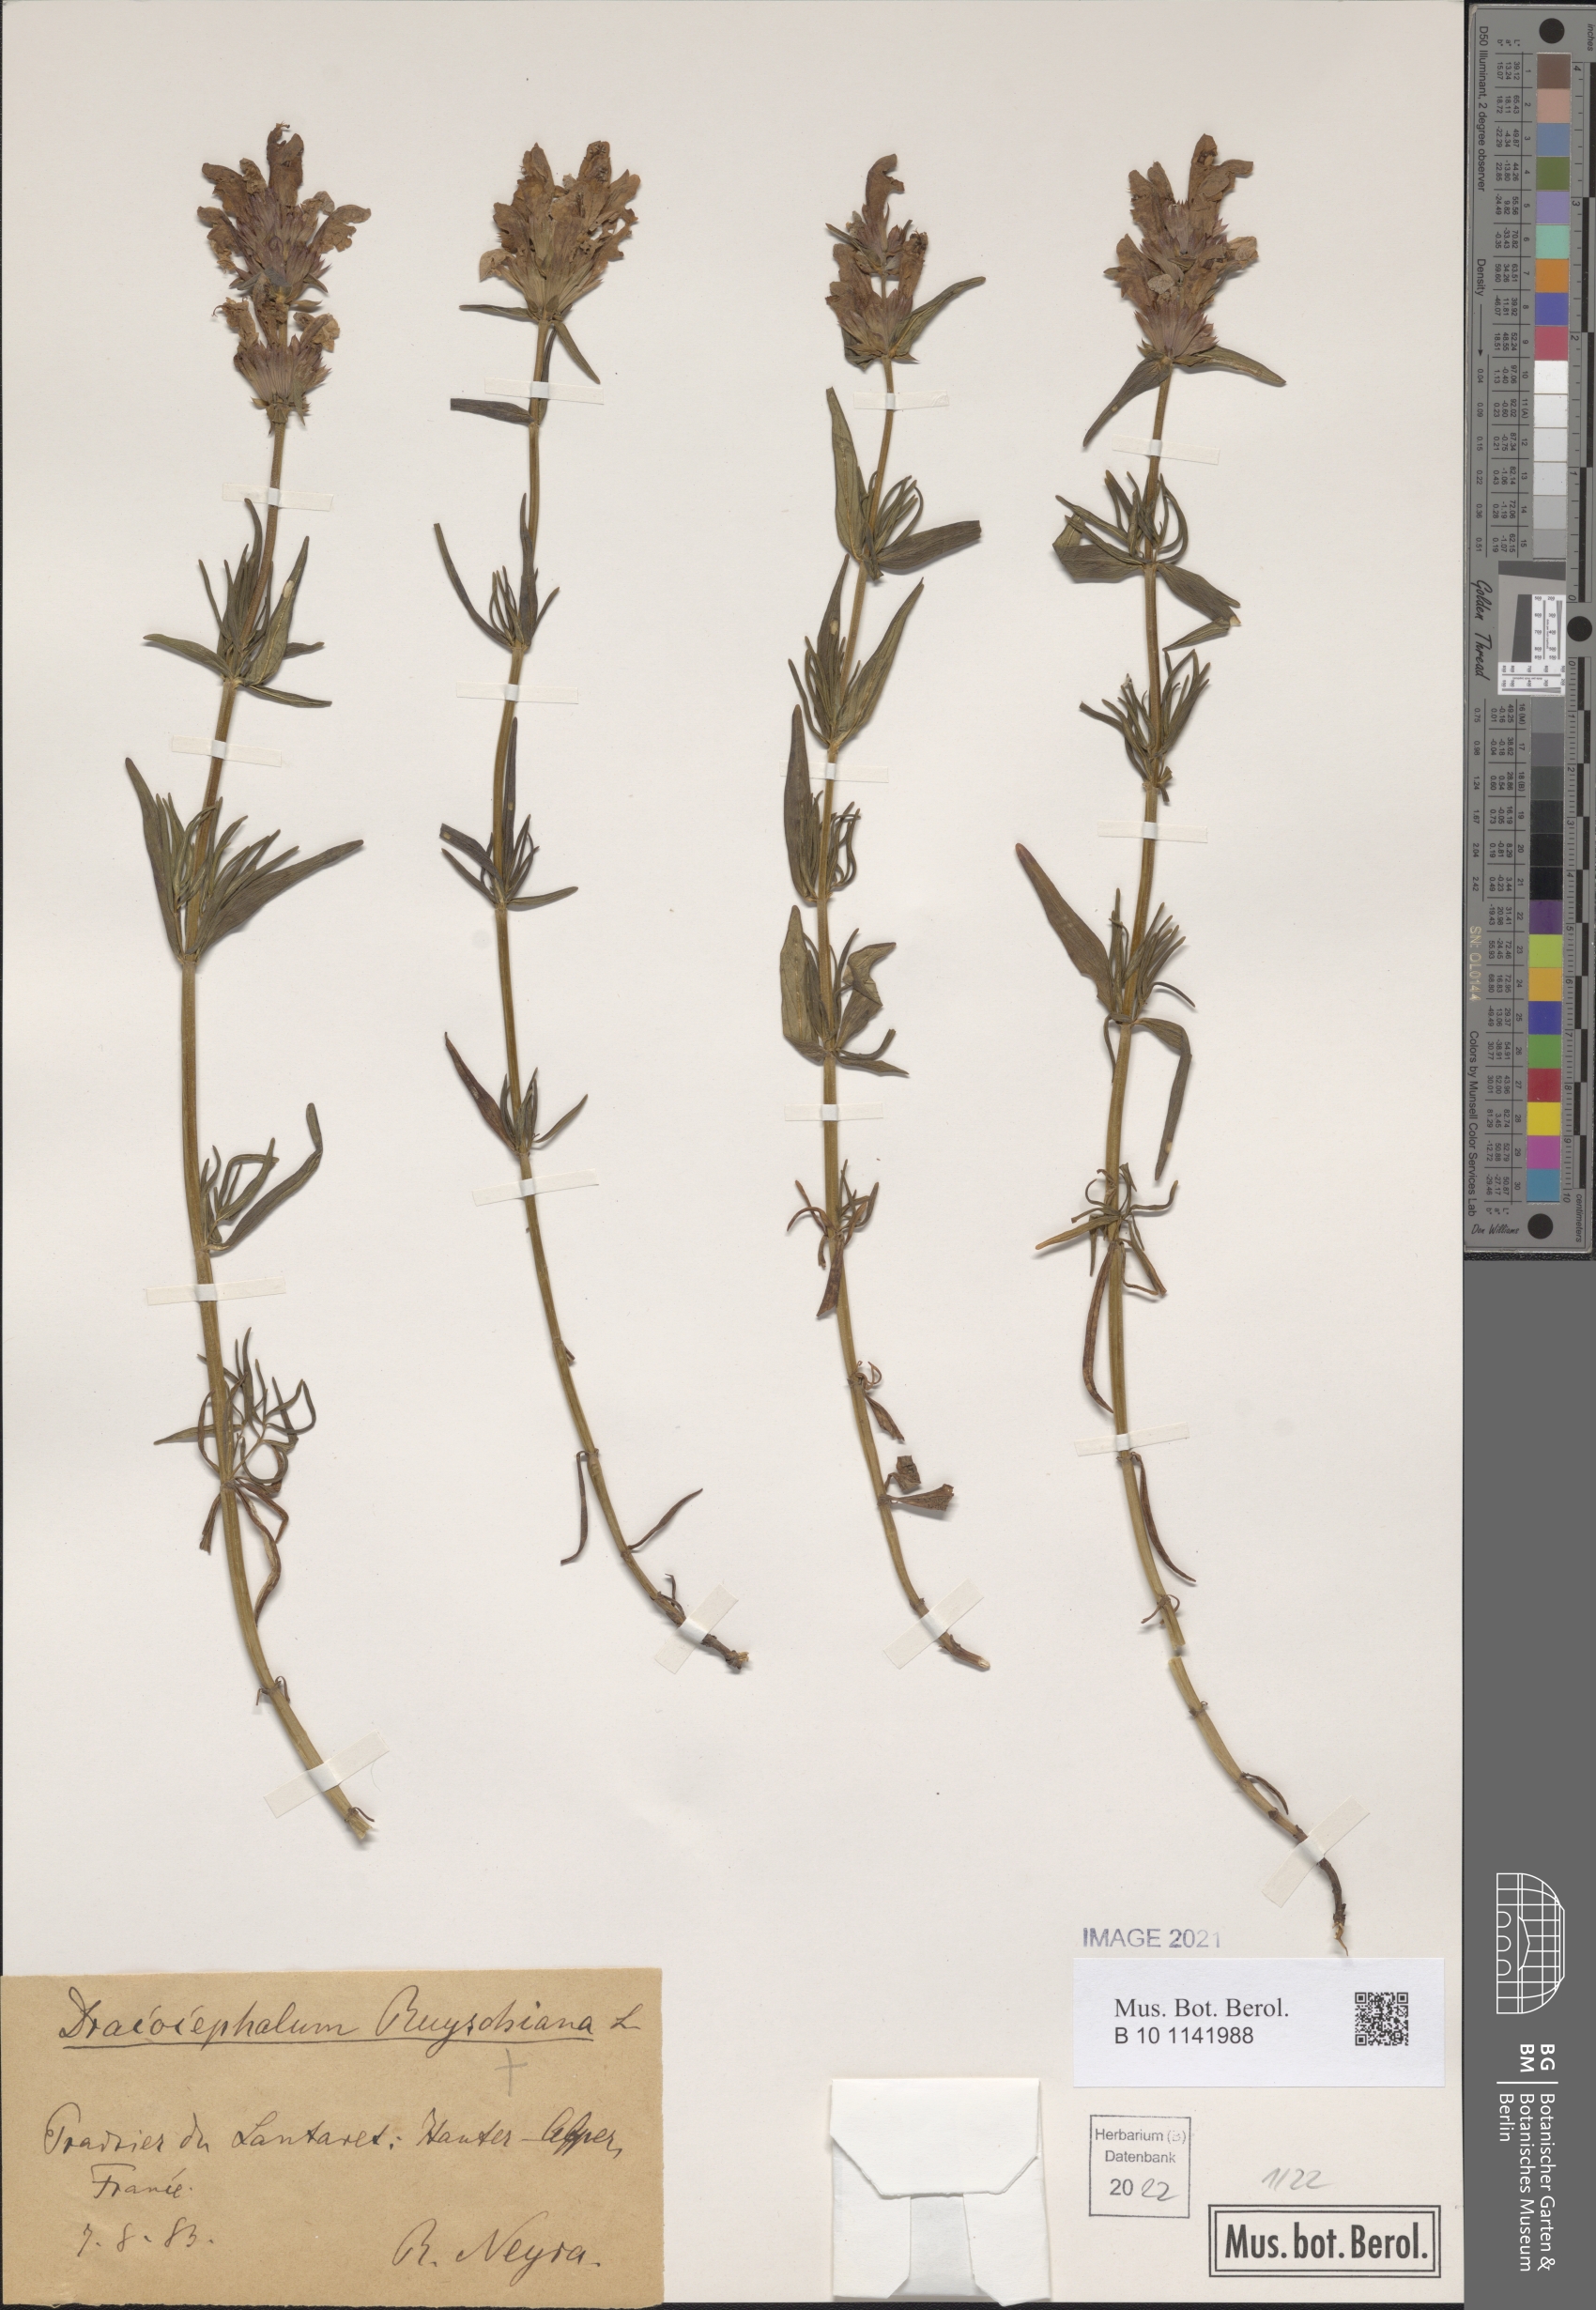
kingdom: Plantae
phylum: Tracheophyta
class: Magnoliopsida
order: Lamiales
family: Lamiaceae
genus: Dracocephalum
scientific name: Dracocephalum ruyschiana
